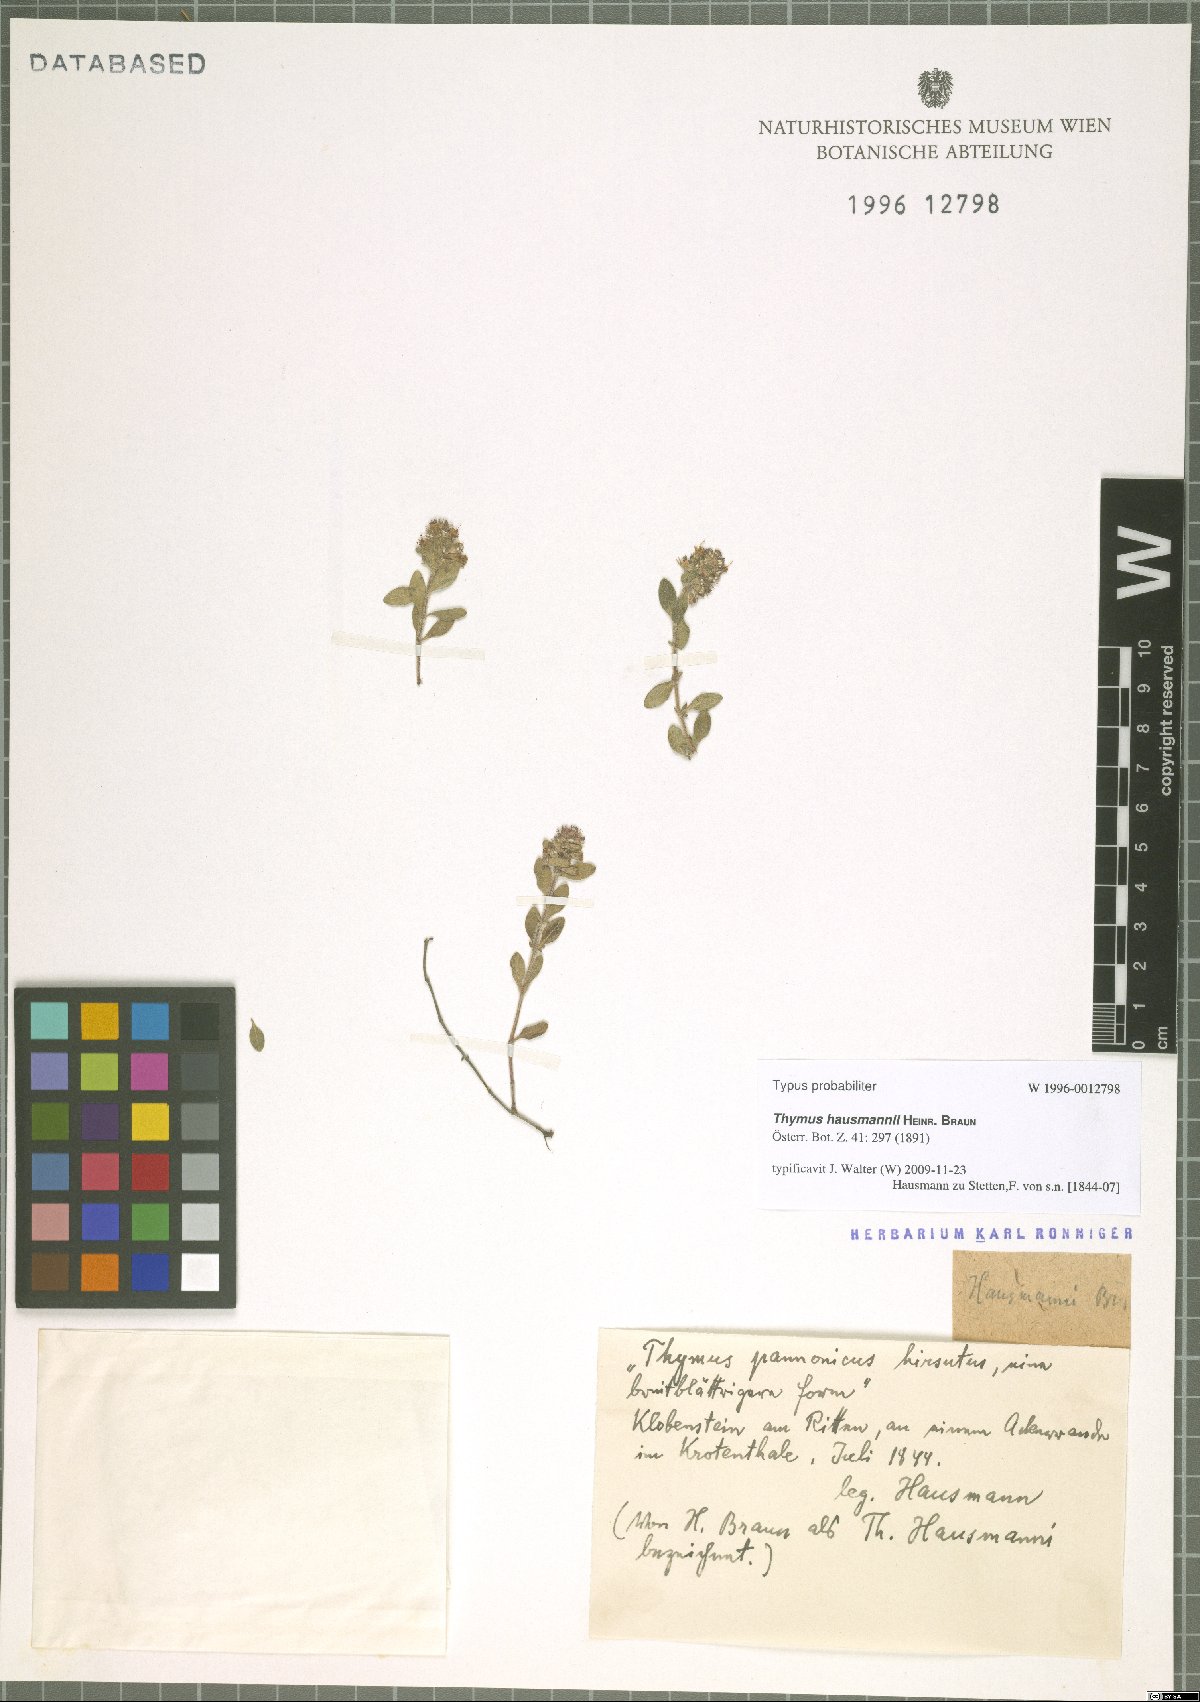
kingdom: Plantae
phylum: Tracheophyta
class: Magnoliopsida
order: Lamiales
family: Lamiaceae
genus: Thymus
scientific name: Thymus serpyllum
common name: Breckland thyme
